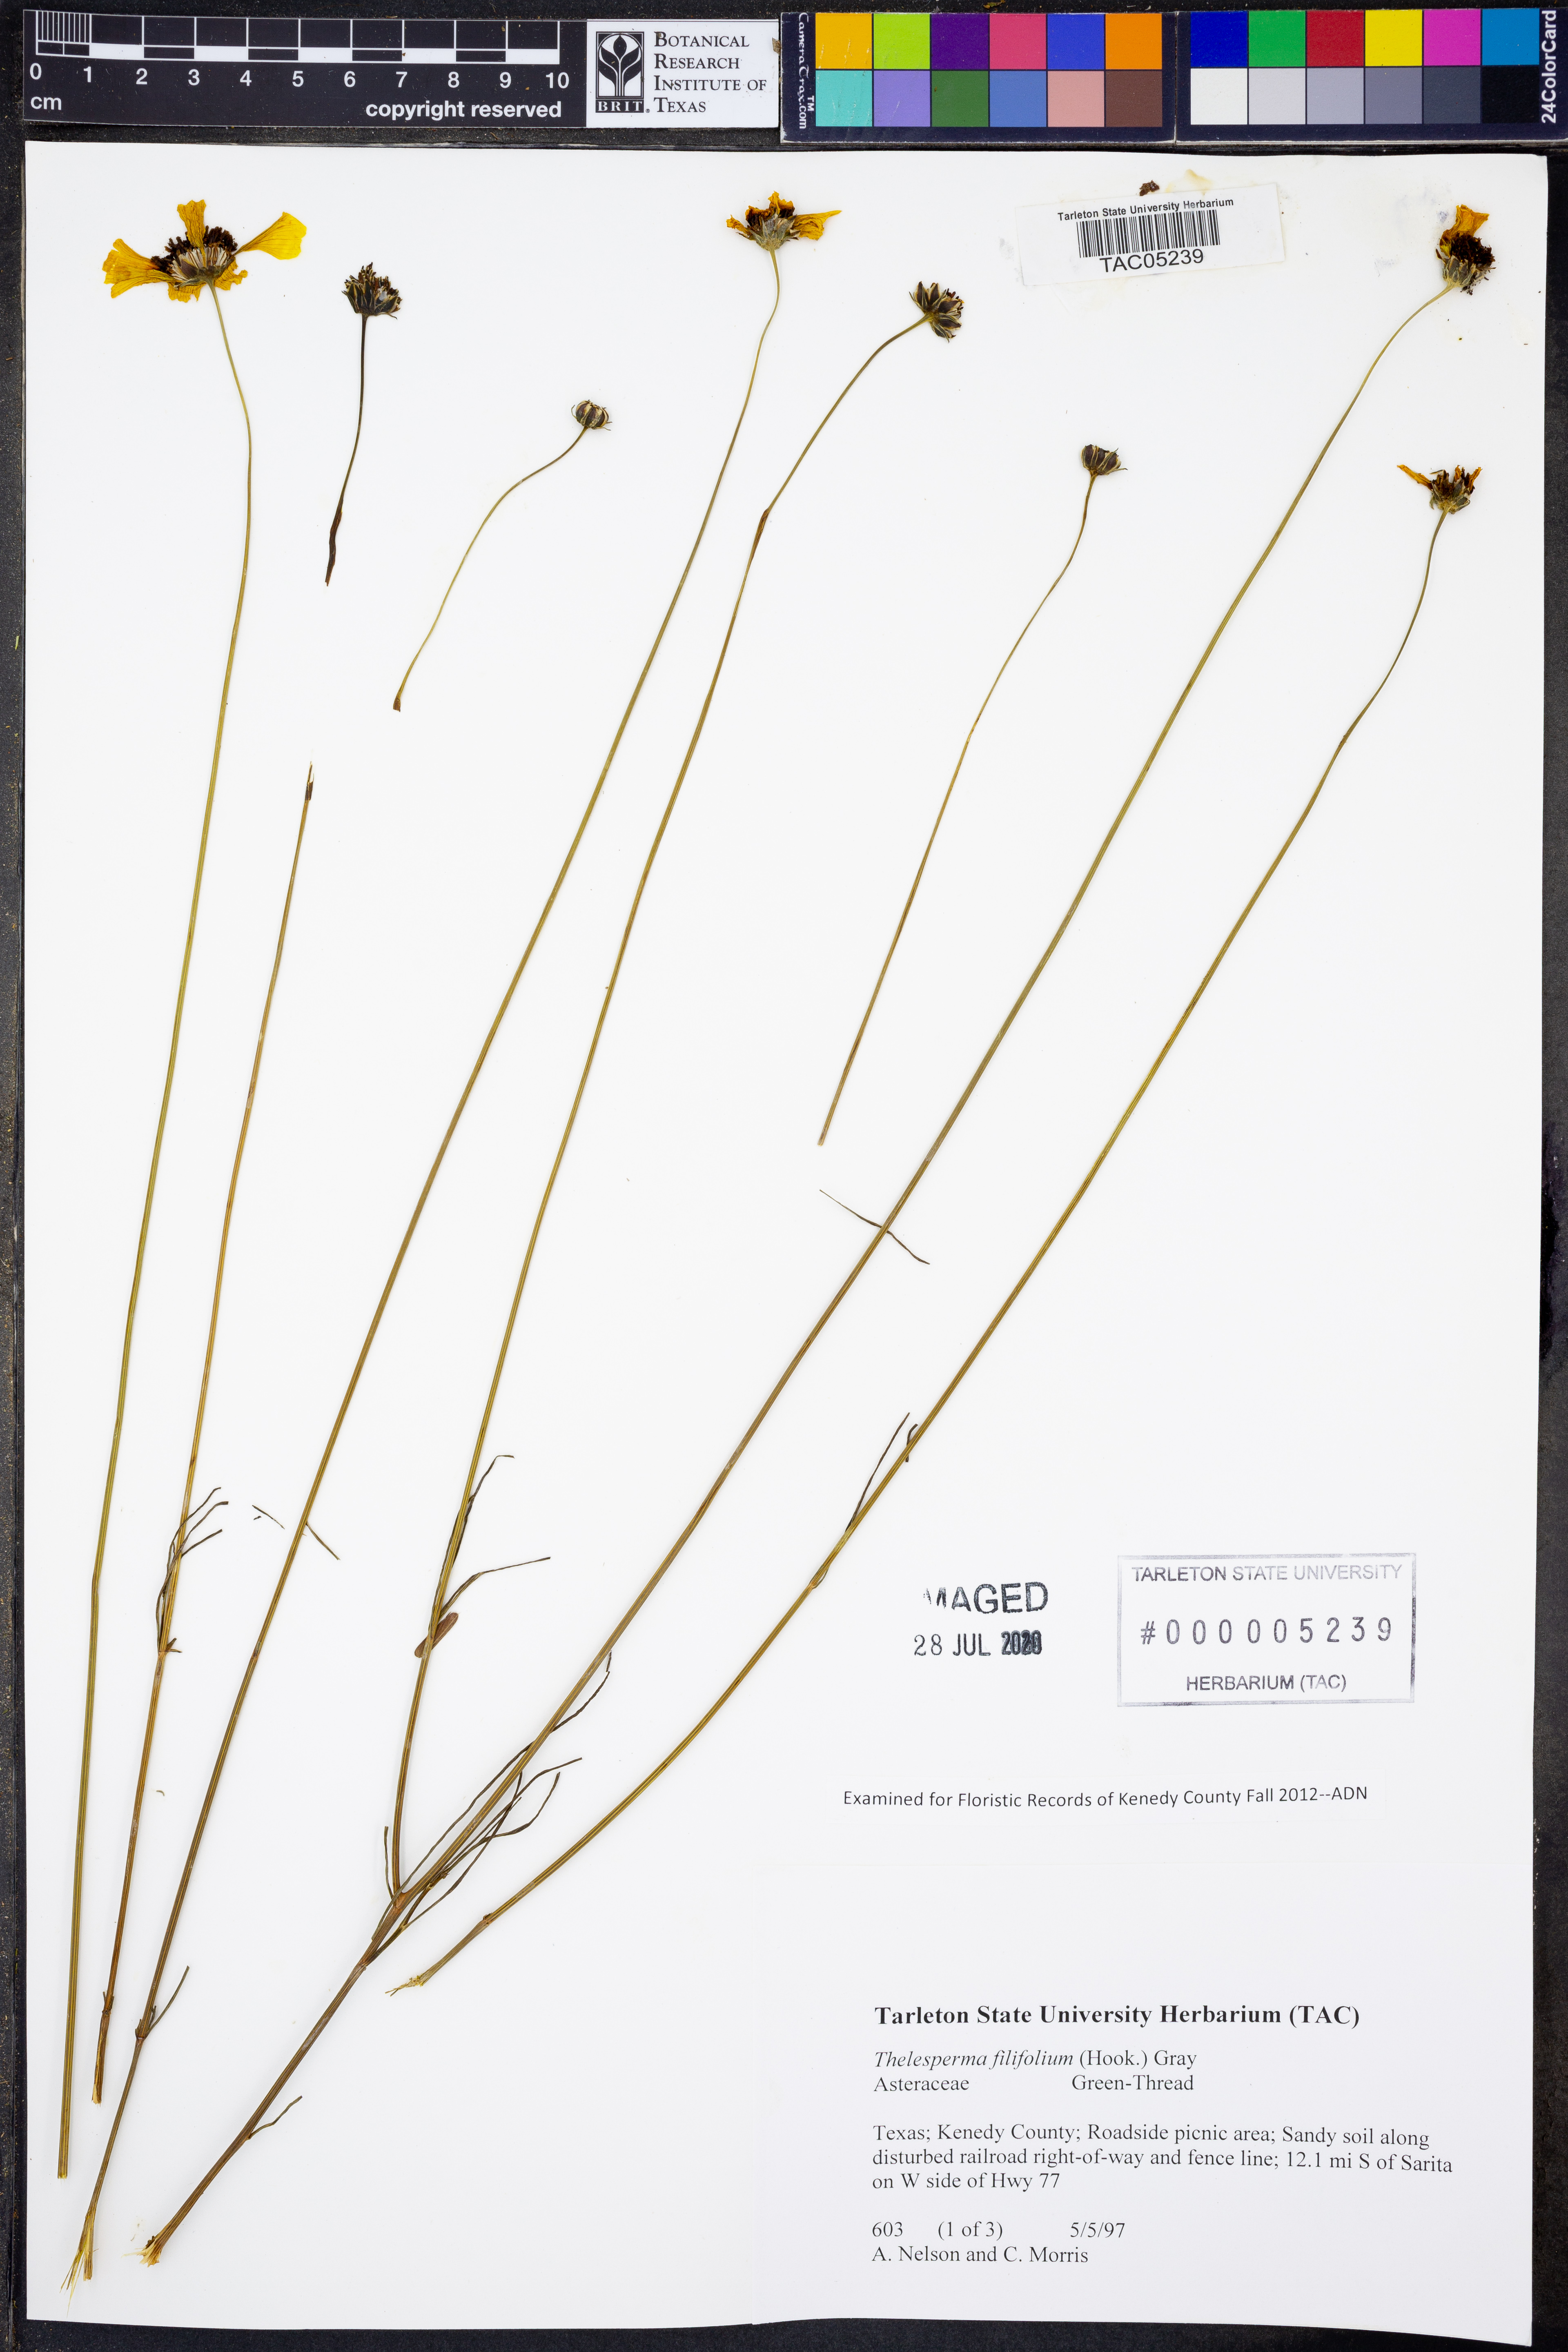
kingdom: Plantae
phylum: Tracheophyta
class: Magnoliopsida
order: Asterales
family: Asteraceae
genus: Thelesperma
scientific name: Thelesperma filifolium
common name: Stiff greenthread
